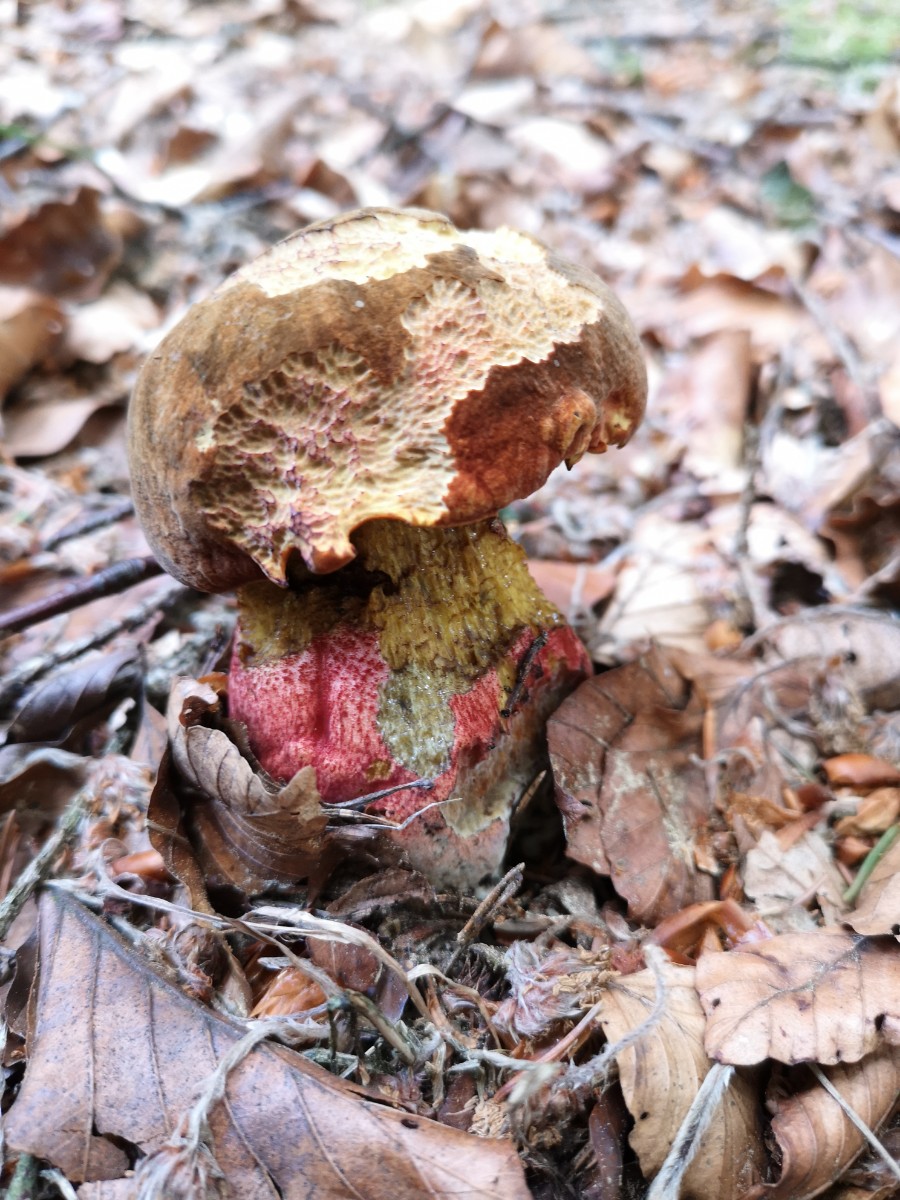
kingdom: Fungi
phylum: Basidiomycota
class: Agaricomycetes
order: Boletales
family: Boletaceae
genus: Neoboletus
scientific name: Neoboletus erythropus
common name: punktstokket indigorørhat
